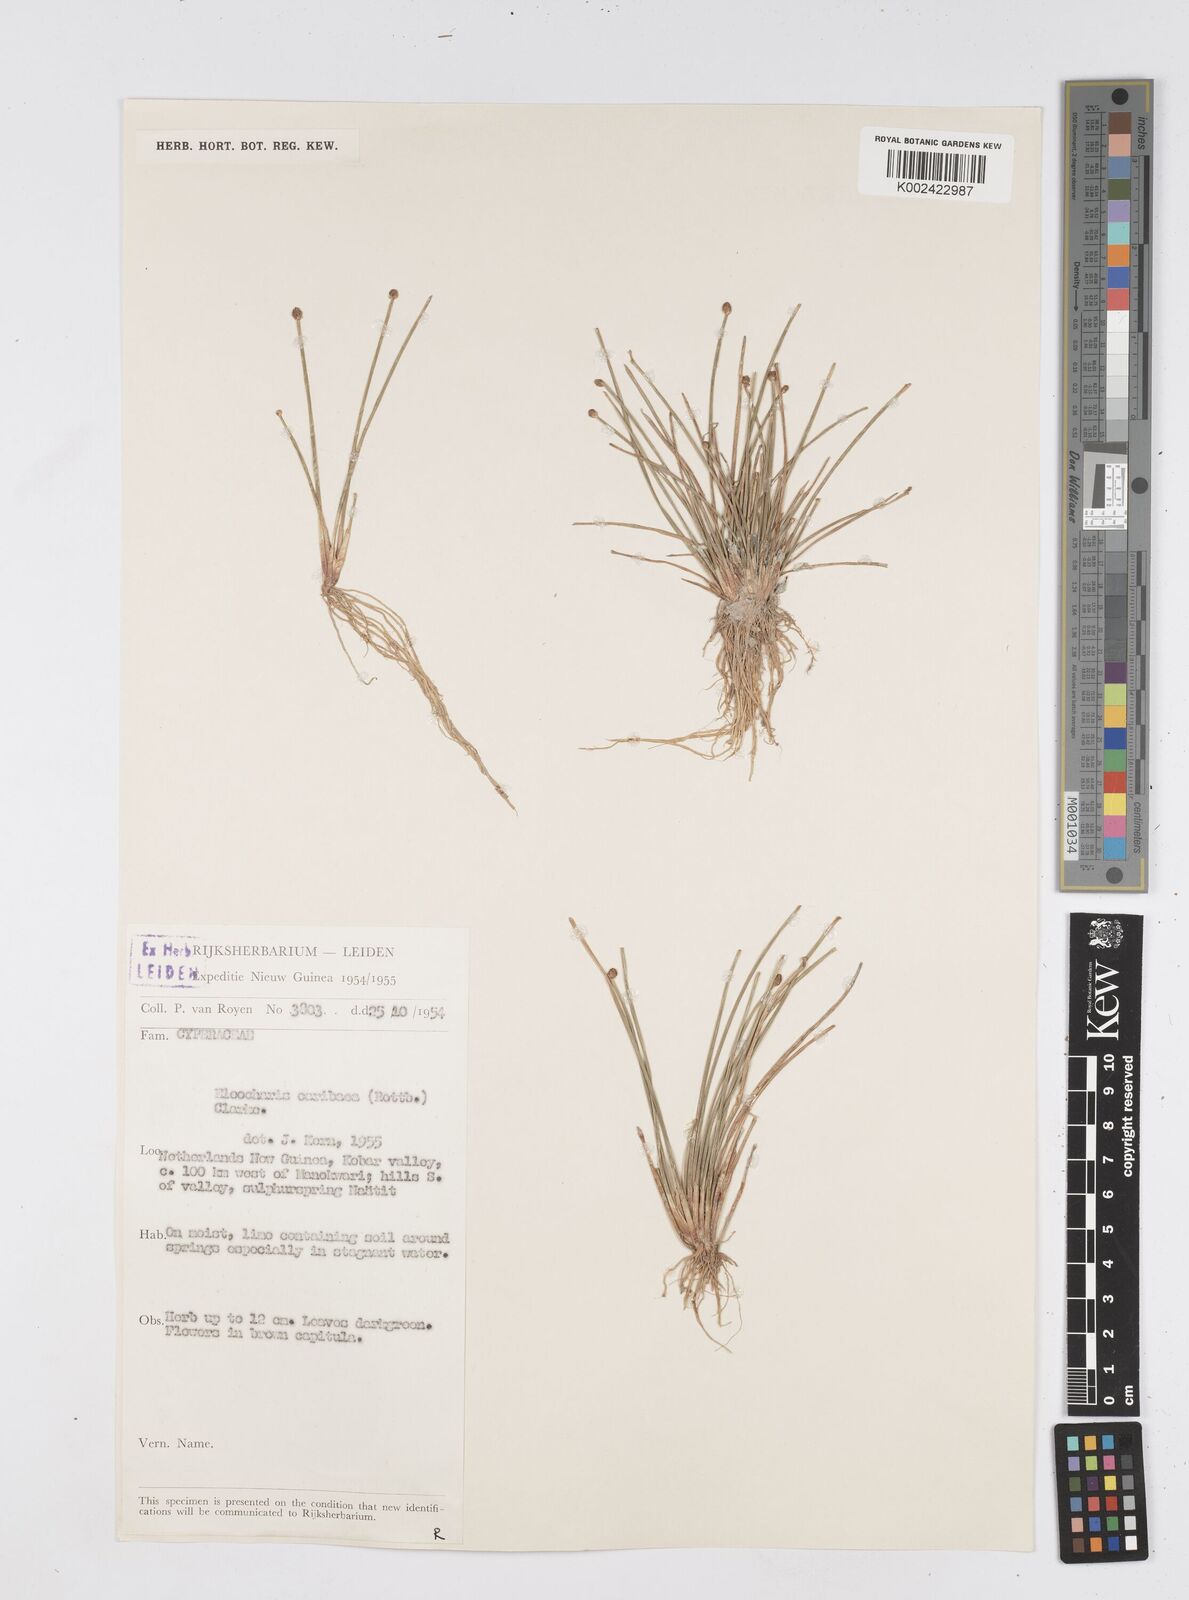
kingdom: Plantae
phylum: Tracheophyta
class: Liliopsida
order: Poales
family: Cyperaceae
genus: Eleocharis
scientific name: Eleocharis geniculata
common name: Canada spikesedge
